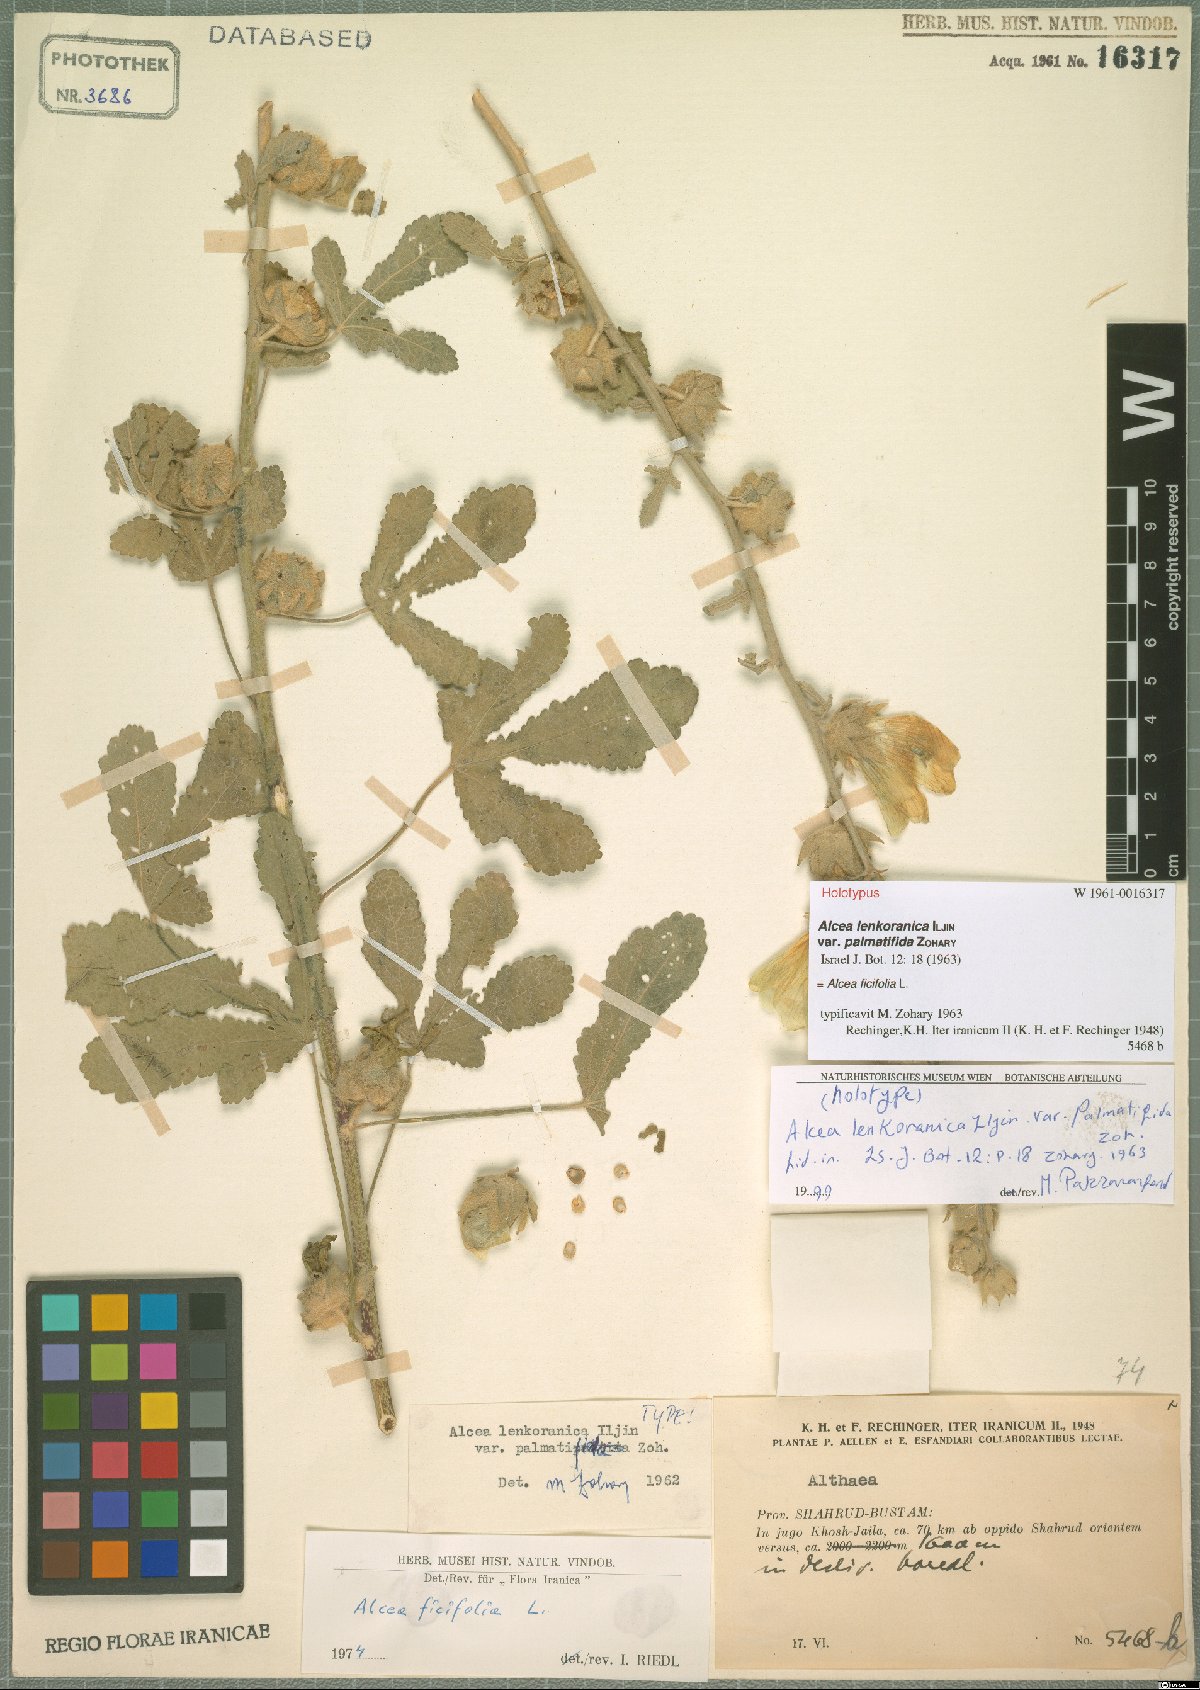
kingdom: Plantae
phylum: Tracheophyta
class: Magnoliopsida
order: Malvales
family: Malvaceae
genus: Alcea
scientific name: Alcea rosea
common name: Hollyhock
